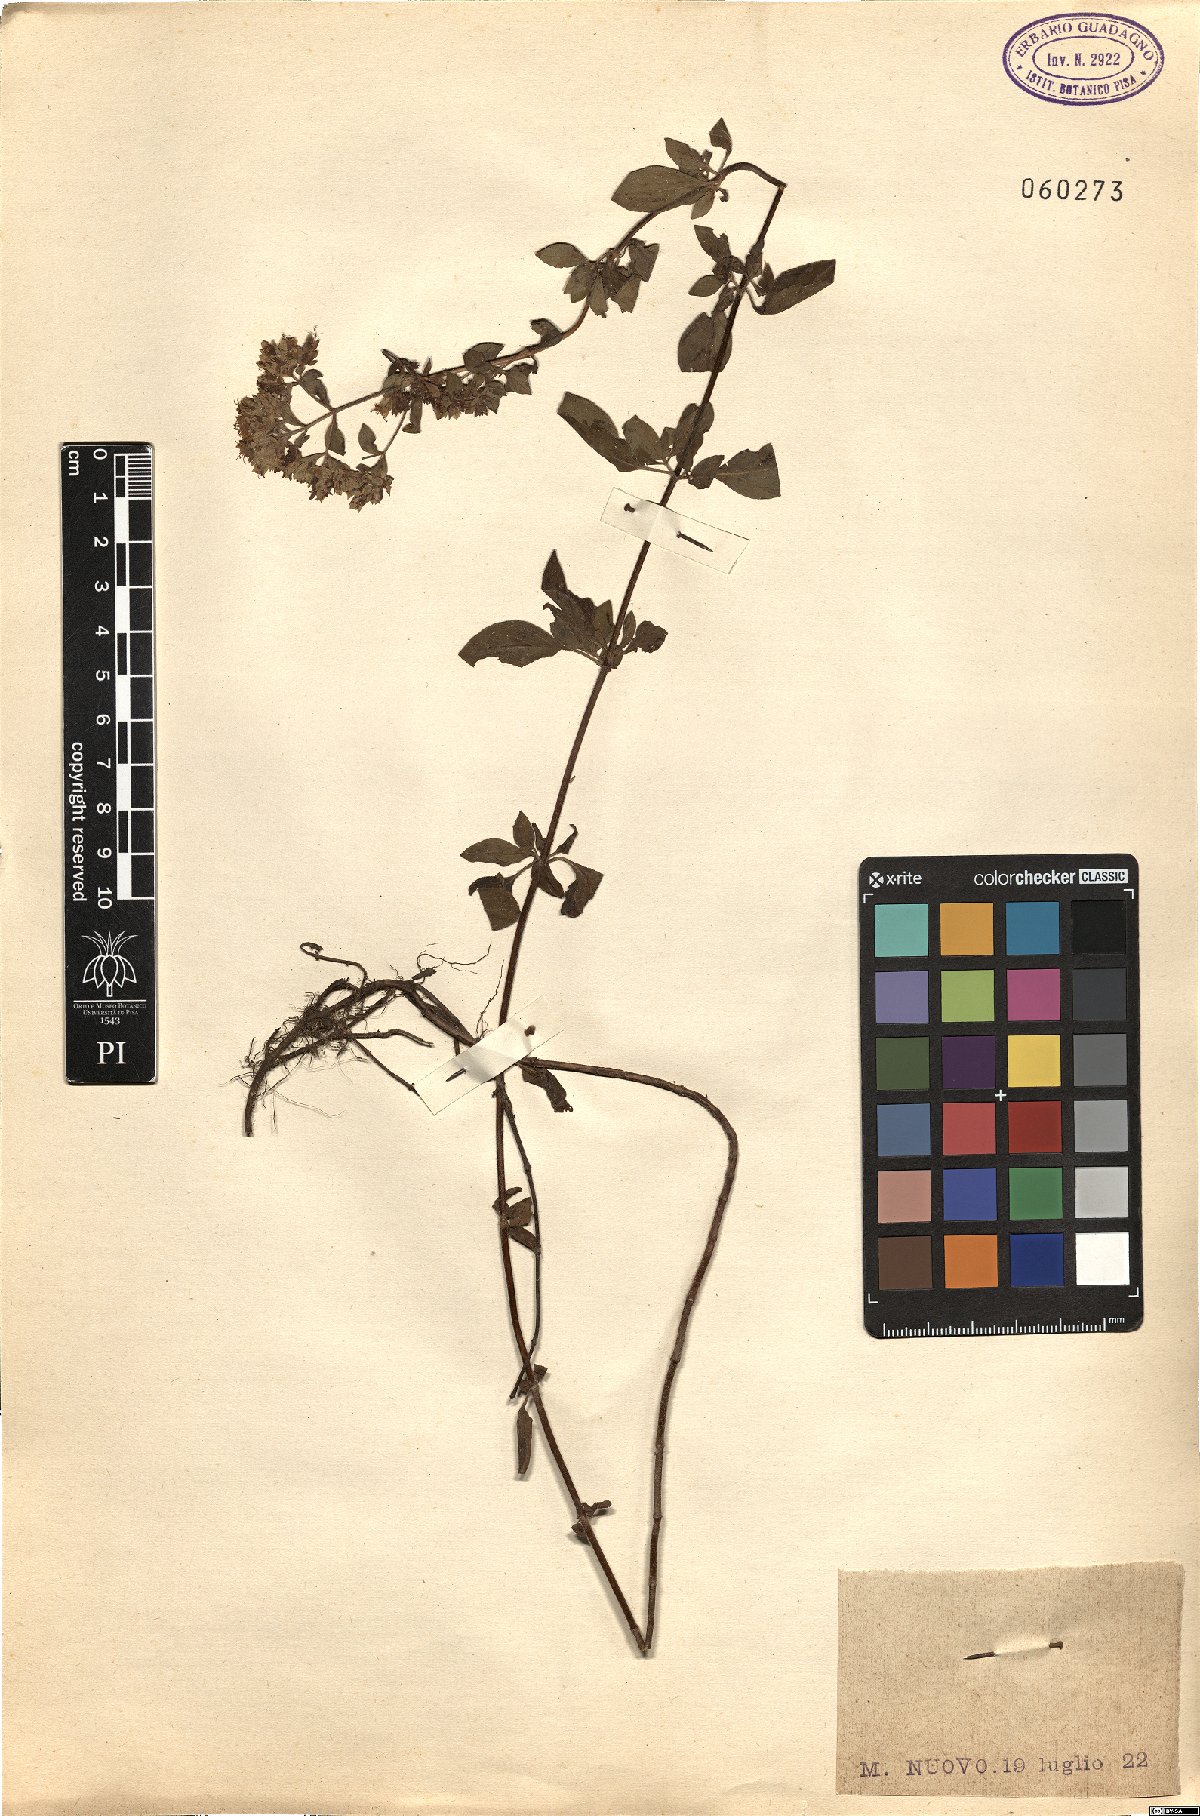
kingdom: Plantae
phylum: Tracheophyta
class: Magnoliopsida
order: Lamiales
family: Lamiaceae
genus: Origanum
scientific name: Origanum vulgare
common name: Wild marjoram
